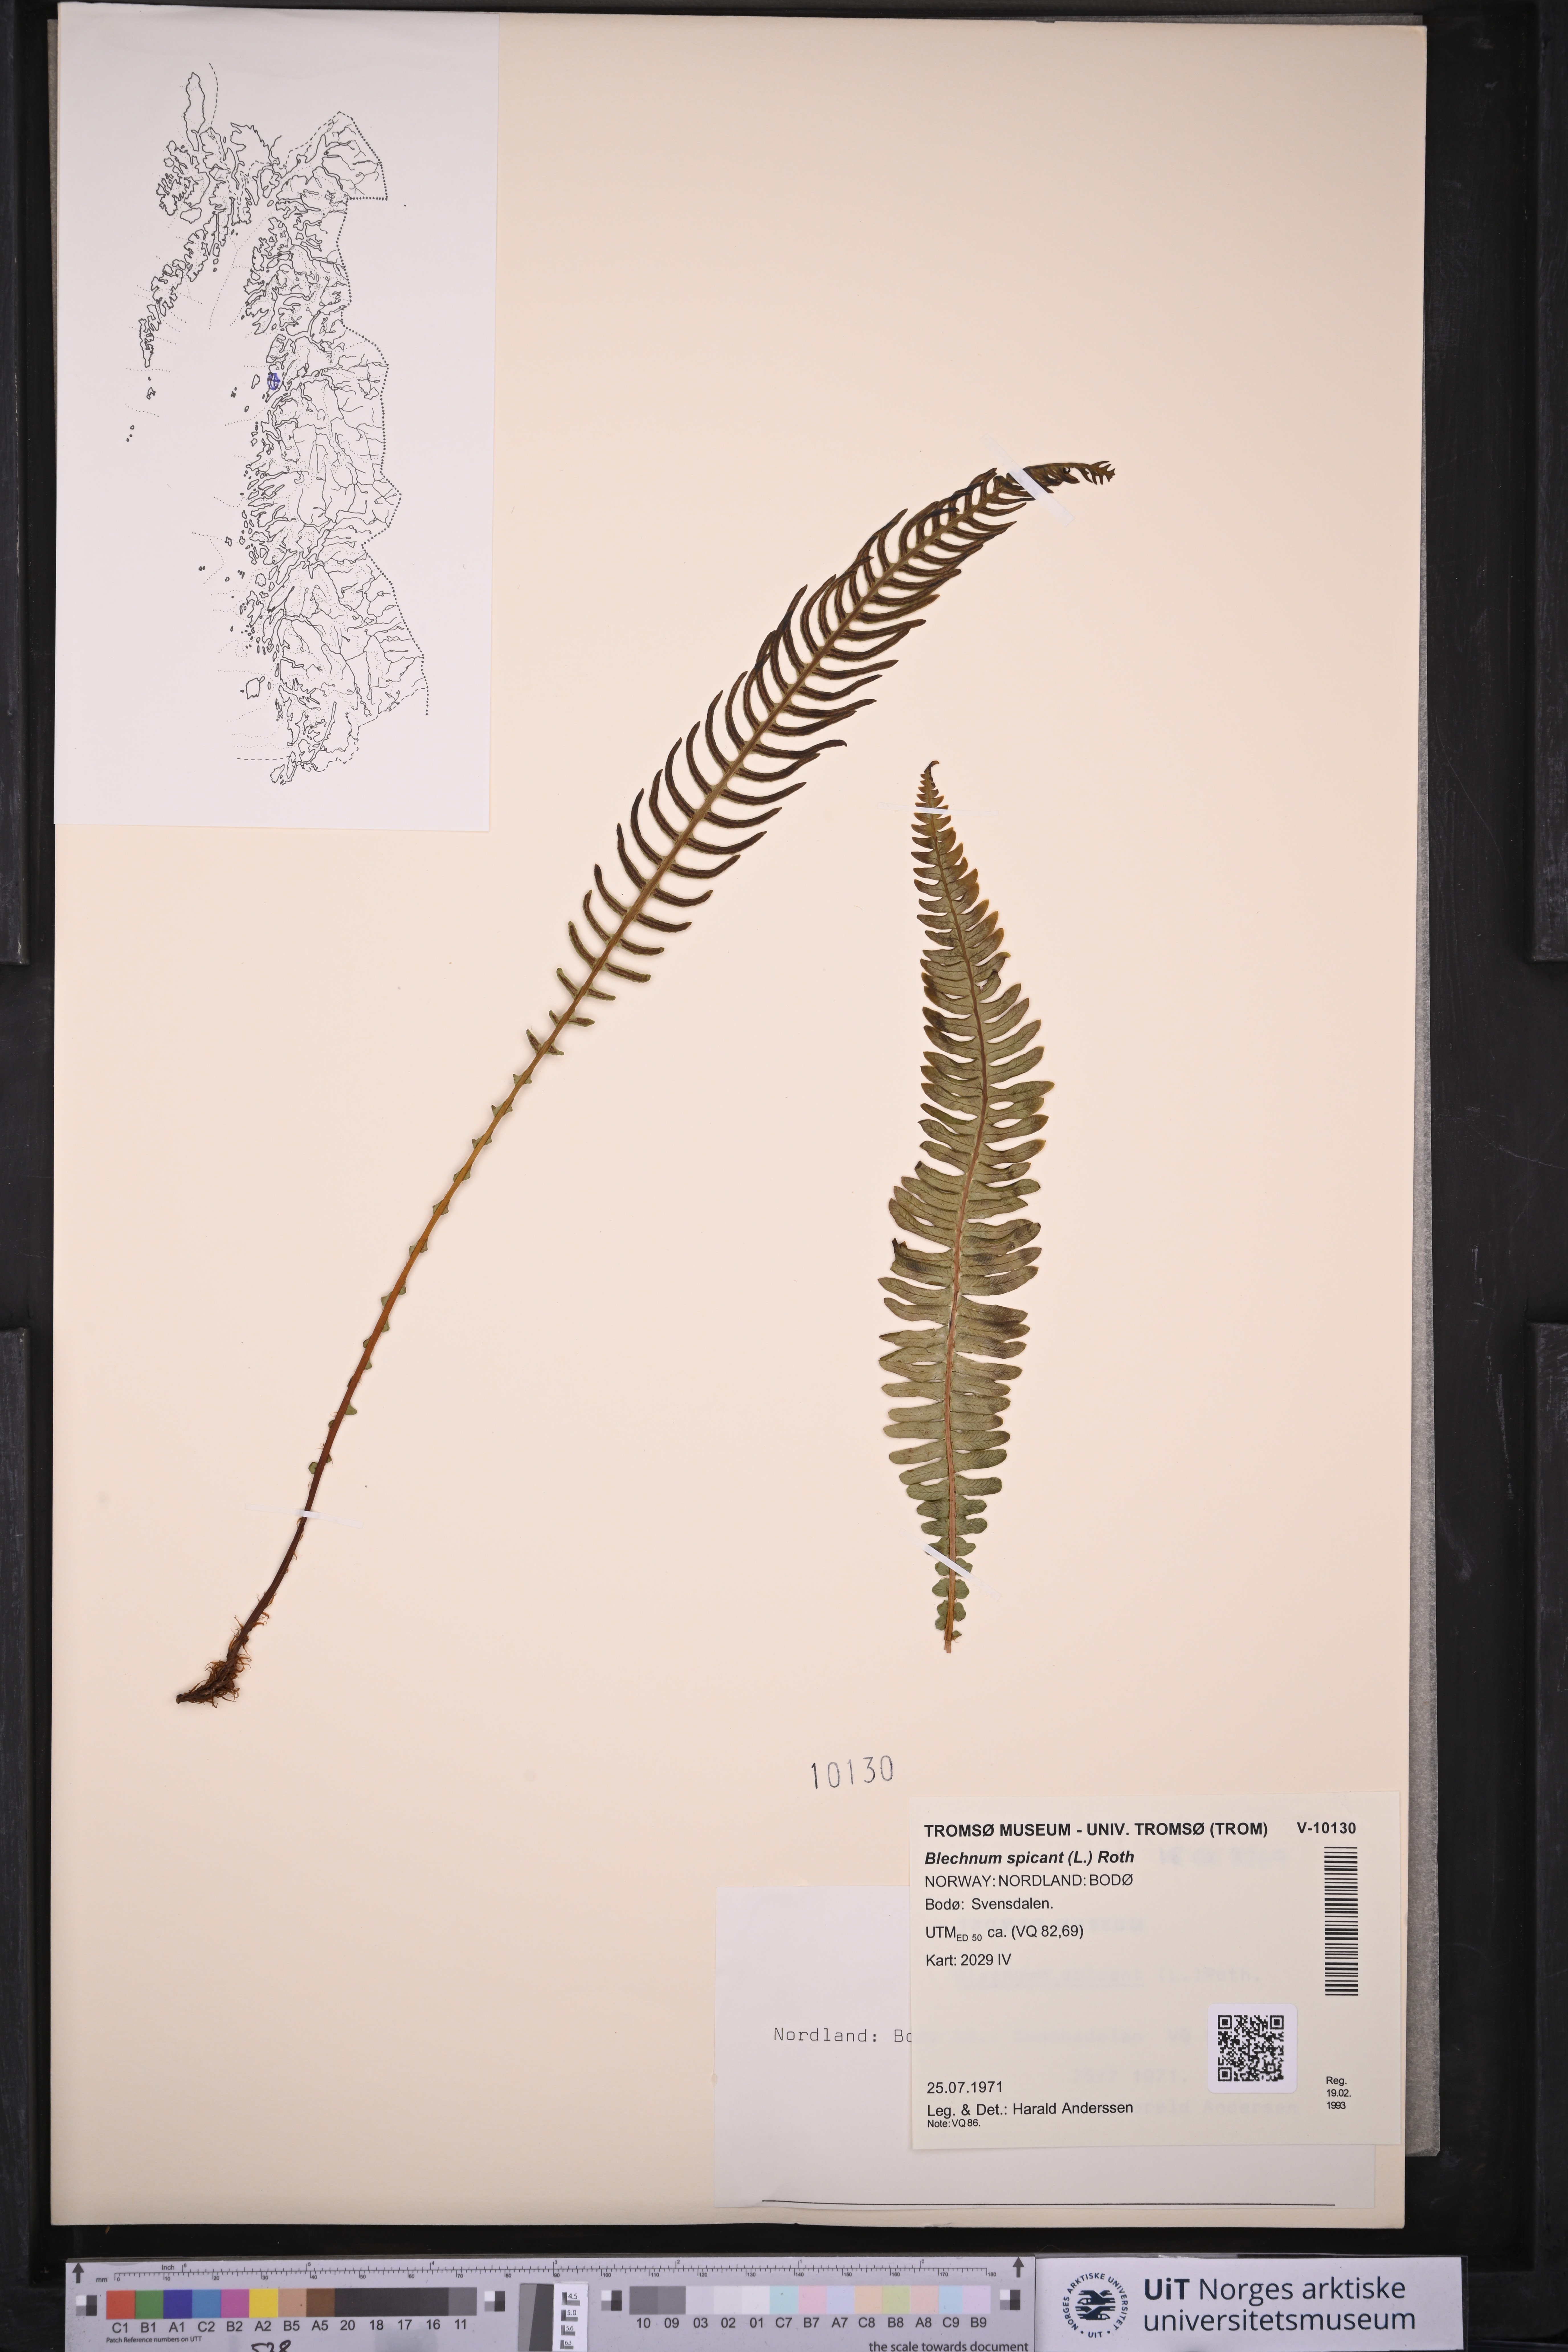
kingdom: Plantae
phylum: Tracheophyta
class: Polypodiopsida
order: Polypodiales
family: Blechnaceae
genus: Struthiopteris
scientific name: Struthiopteris spicant
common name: Deer fern
